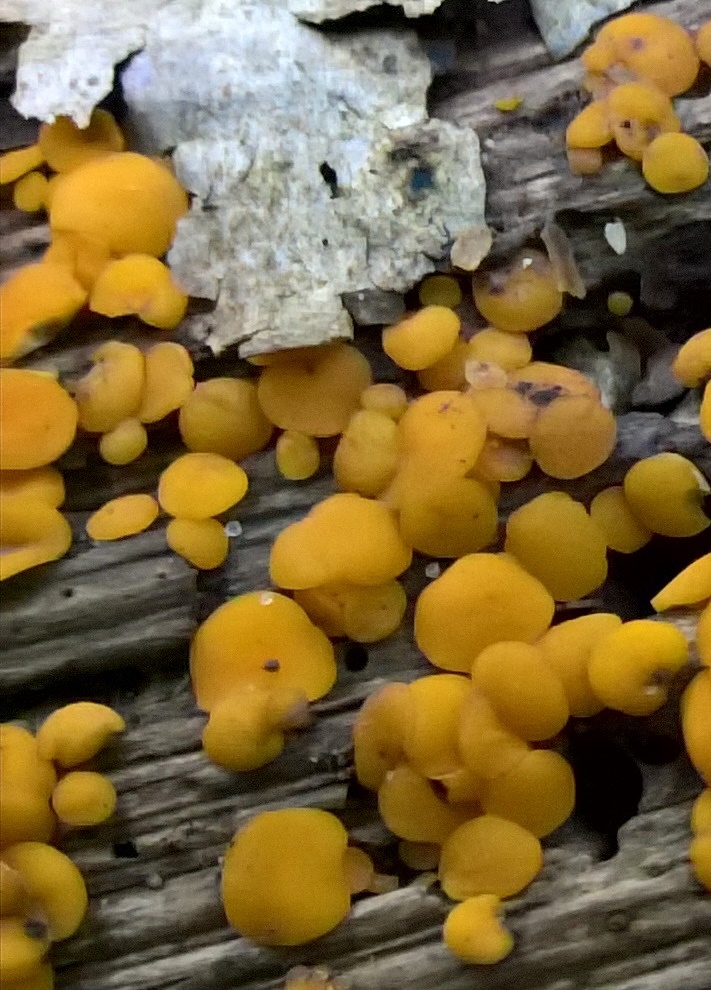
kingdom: Fungi
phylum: Ascomycota
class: Leotiomycetes
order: Helotiales
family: Pezizellaceae
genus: Calycina
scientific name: Calycina citrina
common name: almindelig gulskive
